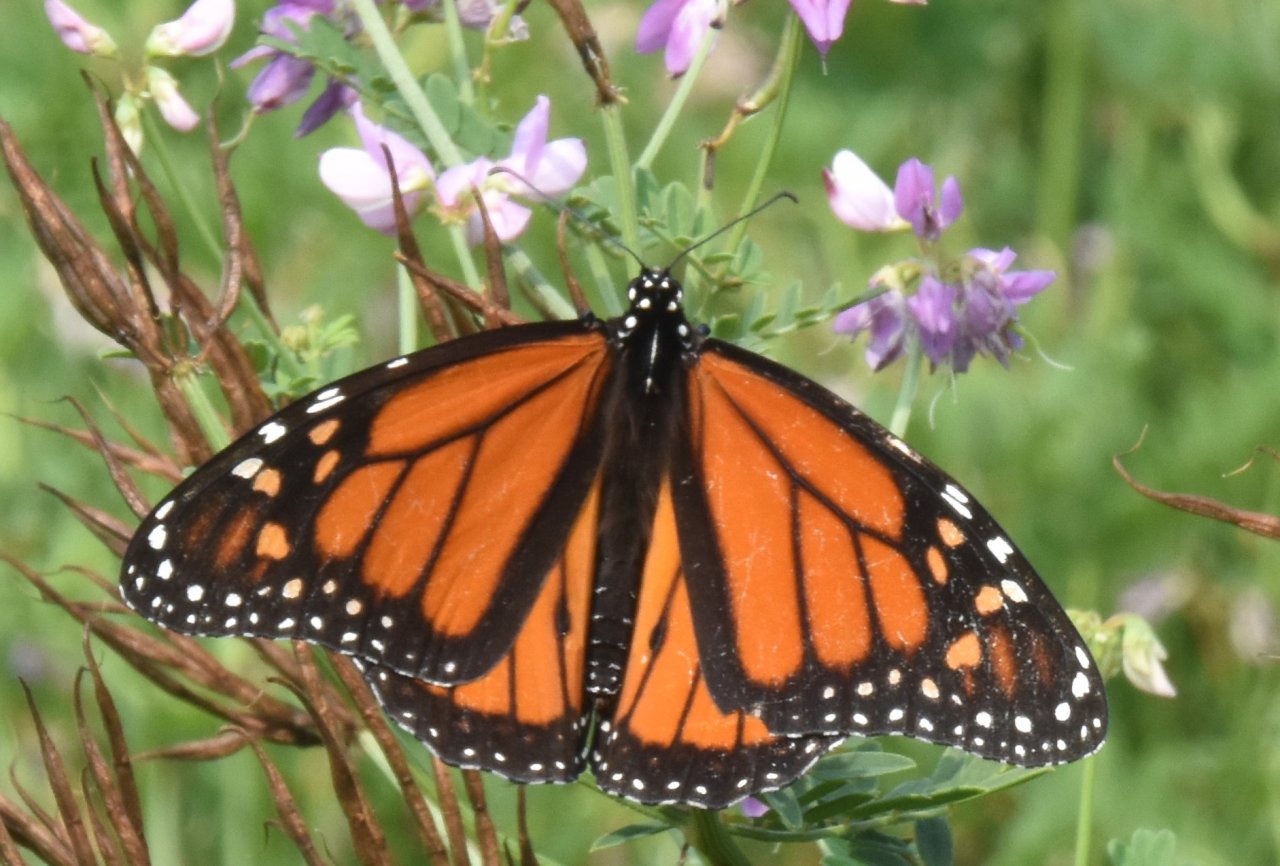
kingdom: Animalia
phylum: Arthropoda
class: Insecta
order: Lepidoptera
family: Nymphalidae
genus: Danaus
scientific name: Danaus plexippus
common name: Monarch
